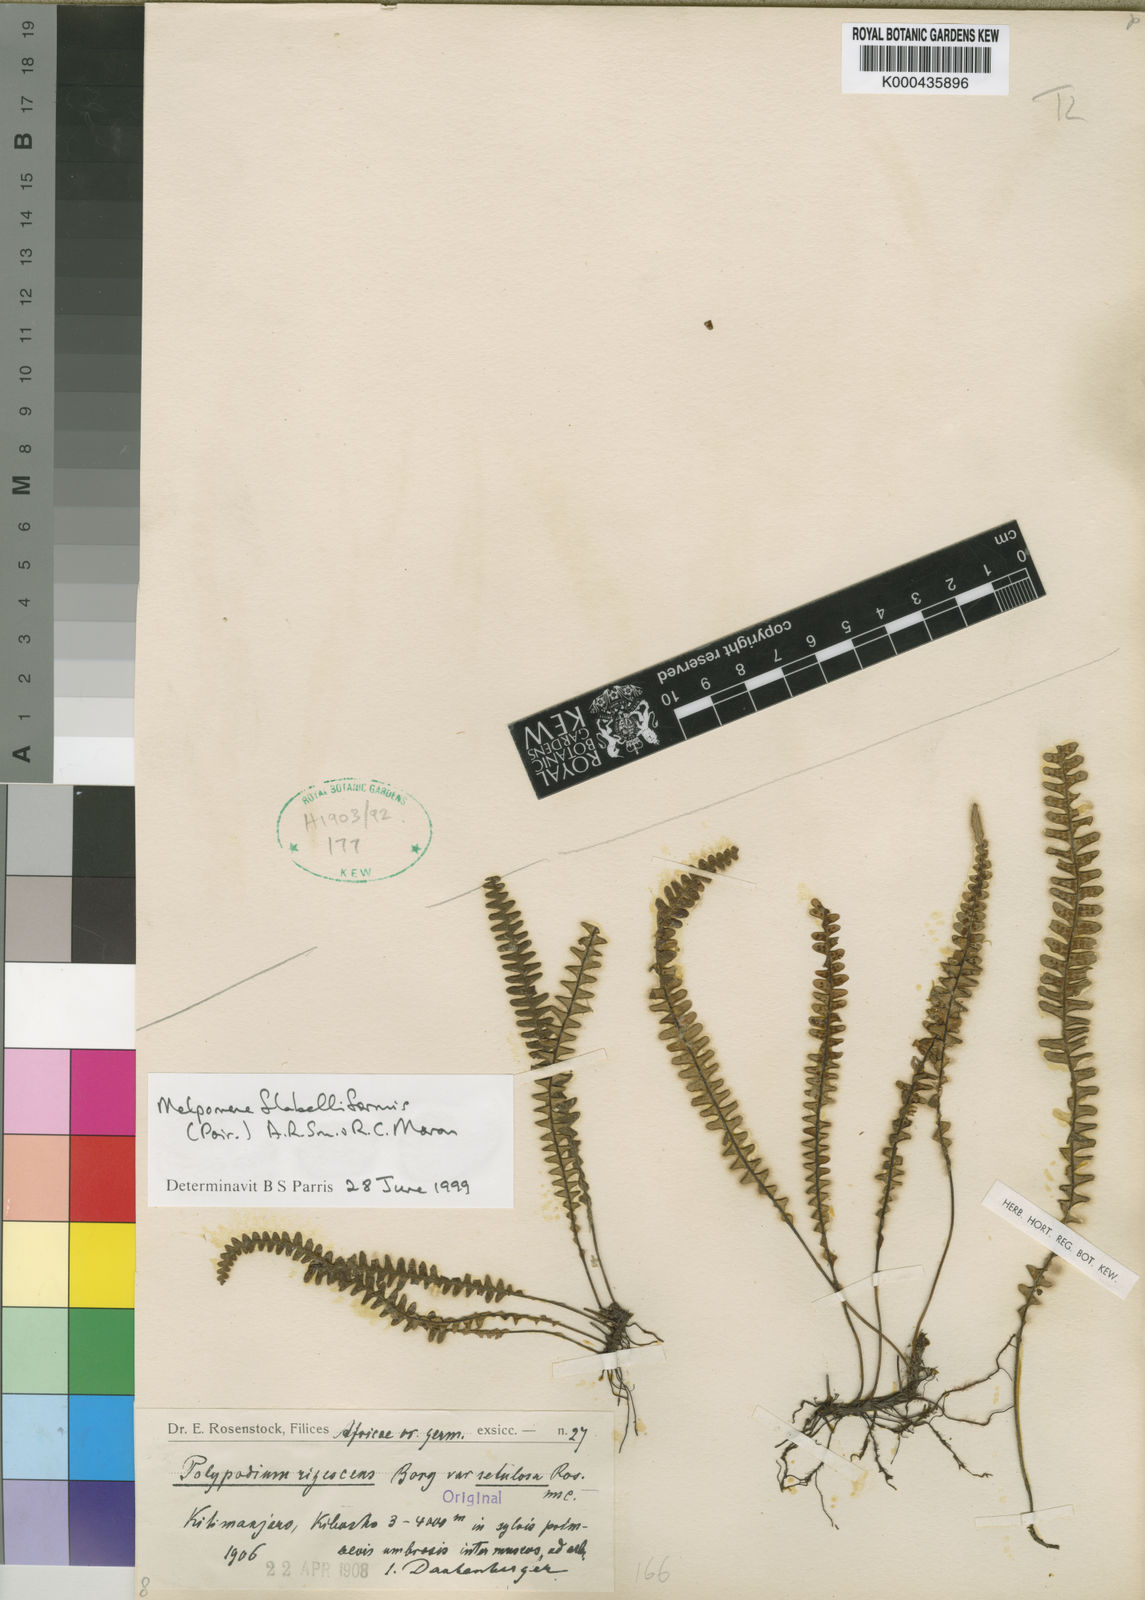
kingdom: Plantae
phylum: Tracheophyta
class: Polypodiopsida
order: Polypodiales
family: Polypodiaceae
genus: Melpomene
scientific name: Melpomene flabelliformis
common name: Fanleaf dwarf polypody
